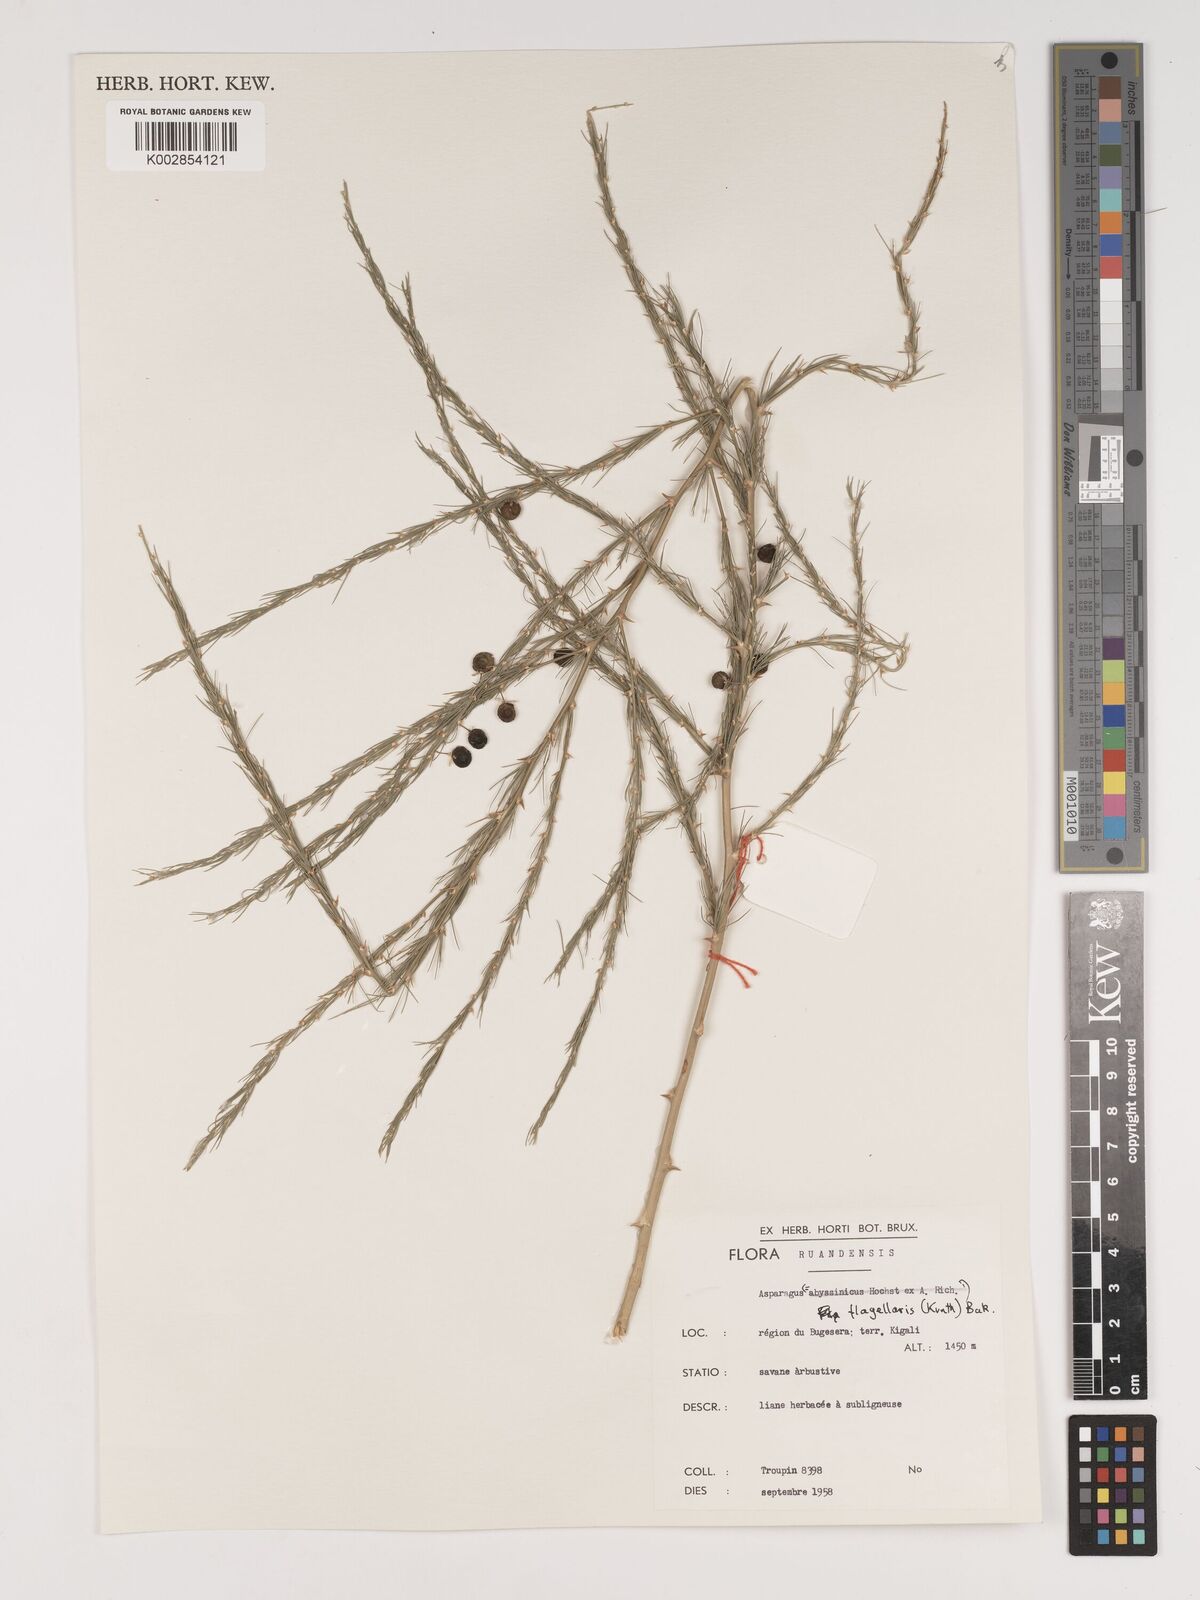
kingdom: Plantae
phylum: Tracheophyta
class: Liliopsida
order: Asparagales
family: Asparagaceae
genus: Asparagus
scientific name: Asparagus flagellaris
